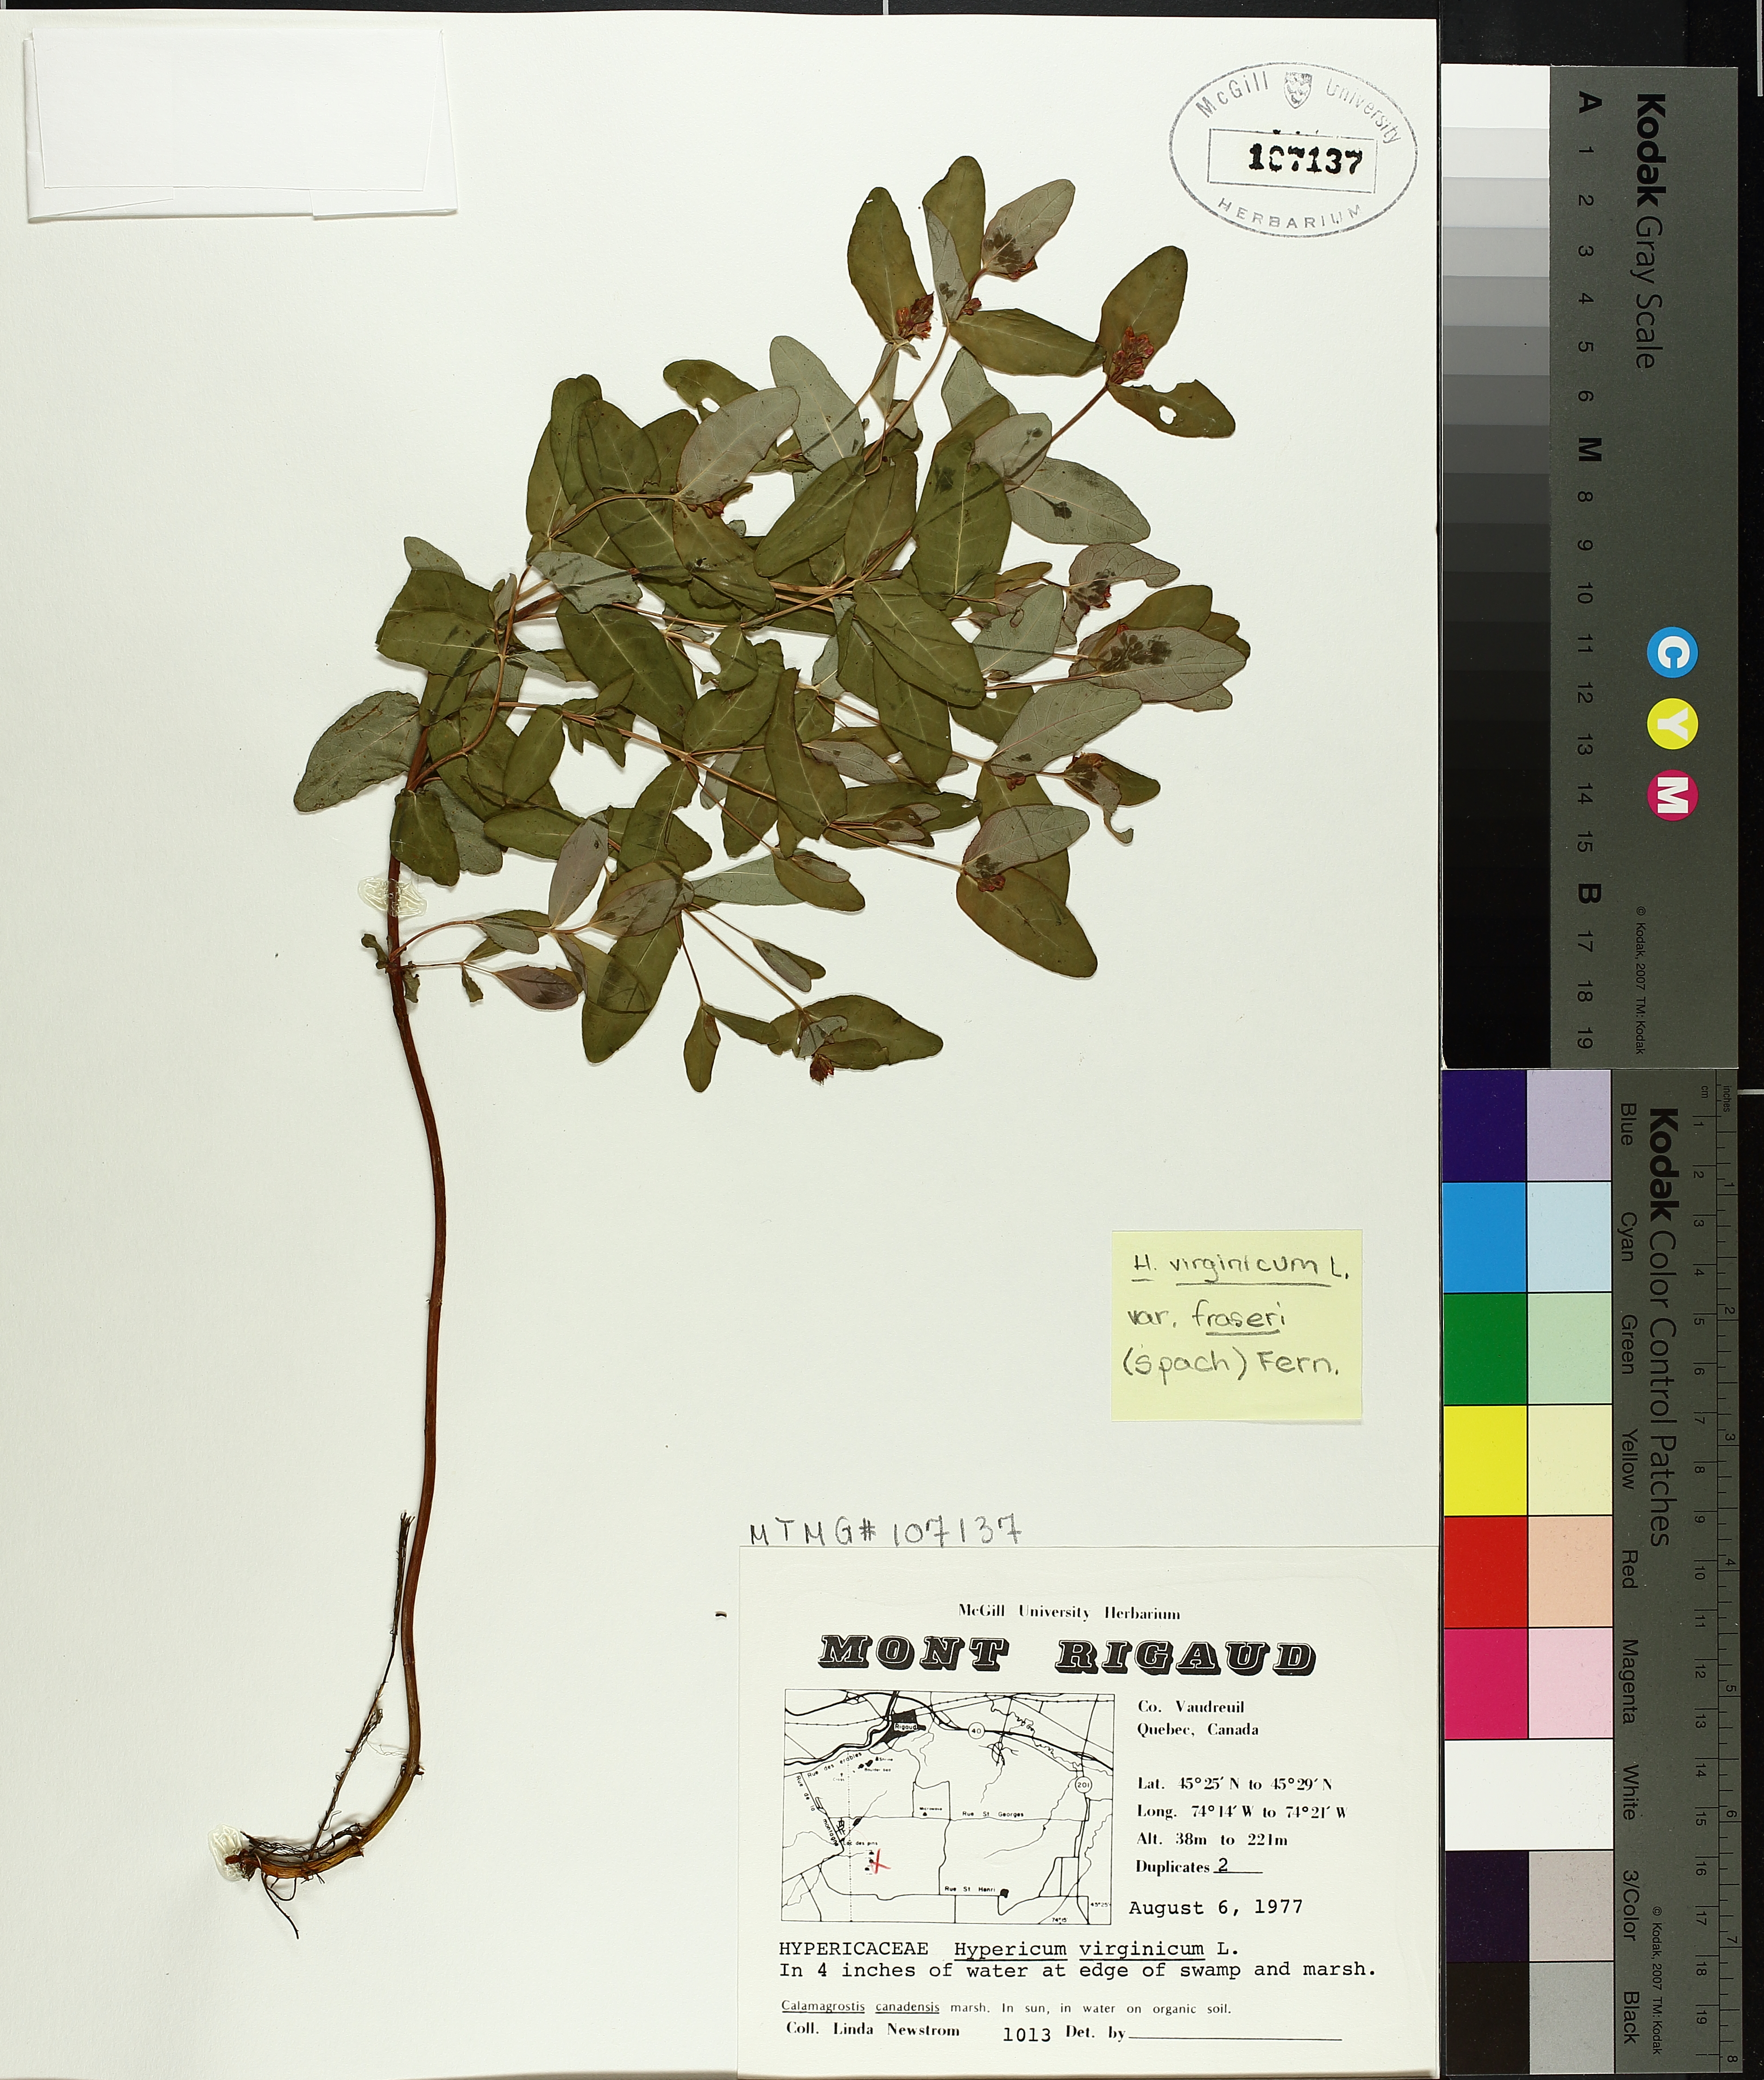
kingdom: Plantae
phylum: Tracheophyta
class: Magnoliopsida
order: Malpighiales
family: Hypericaceae
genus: Triadenum
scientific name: Triadenum virginicum
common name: Marsh st. john's-wort
